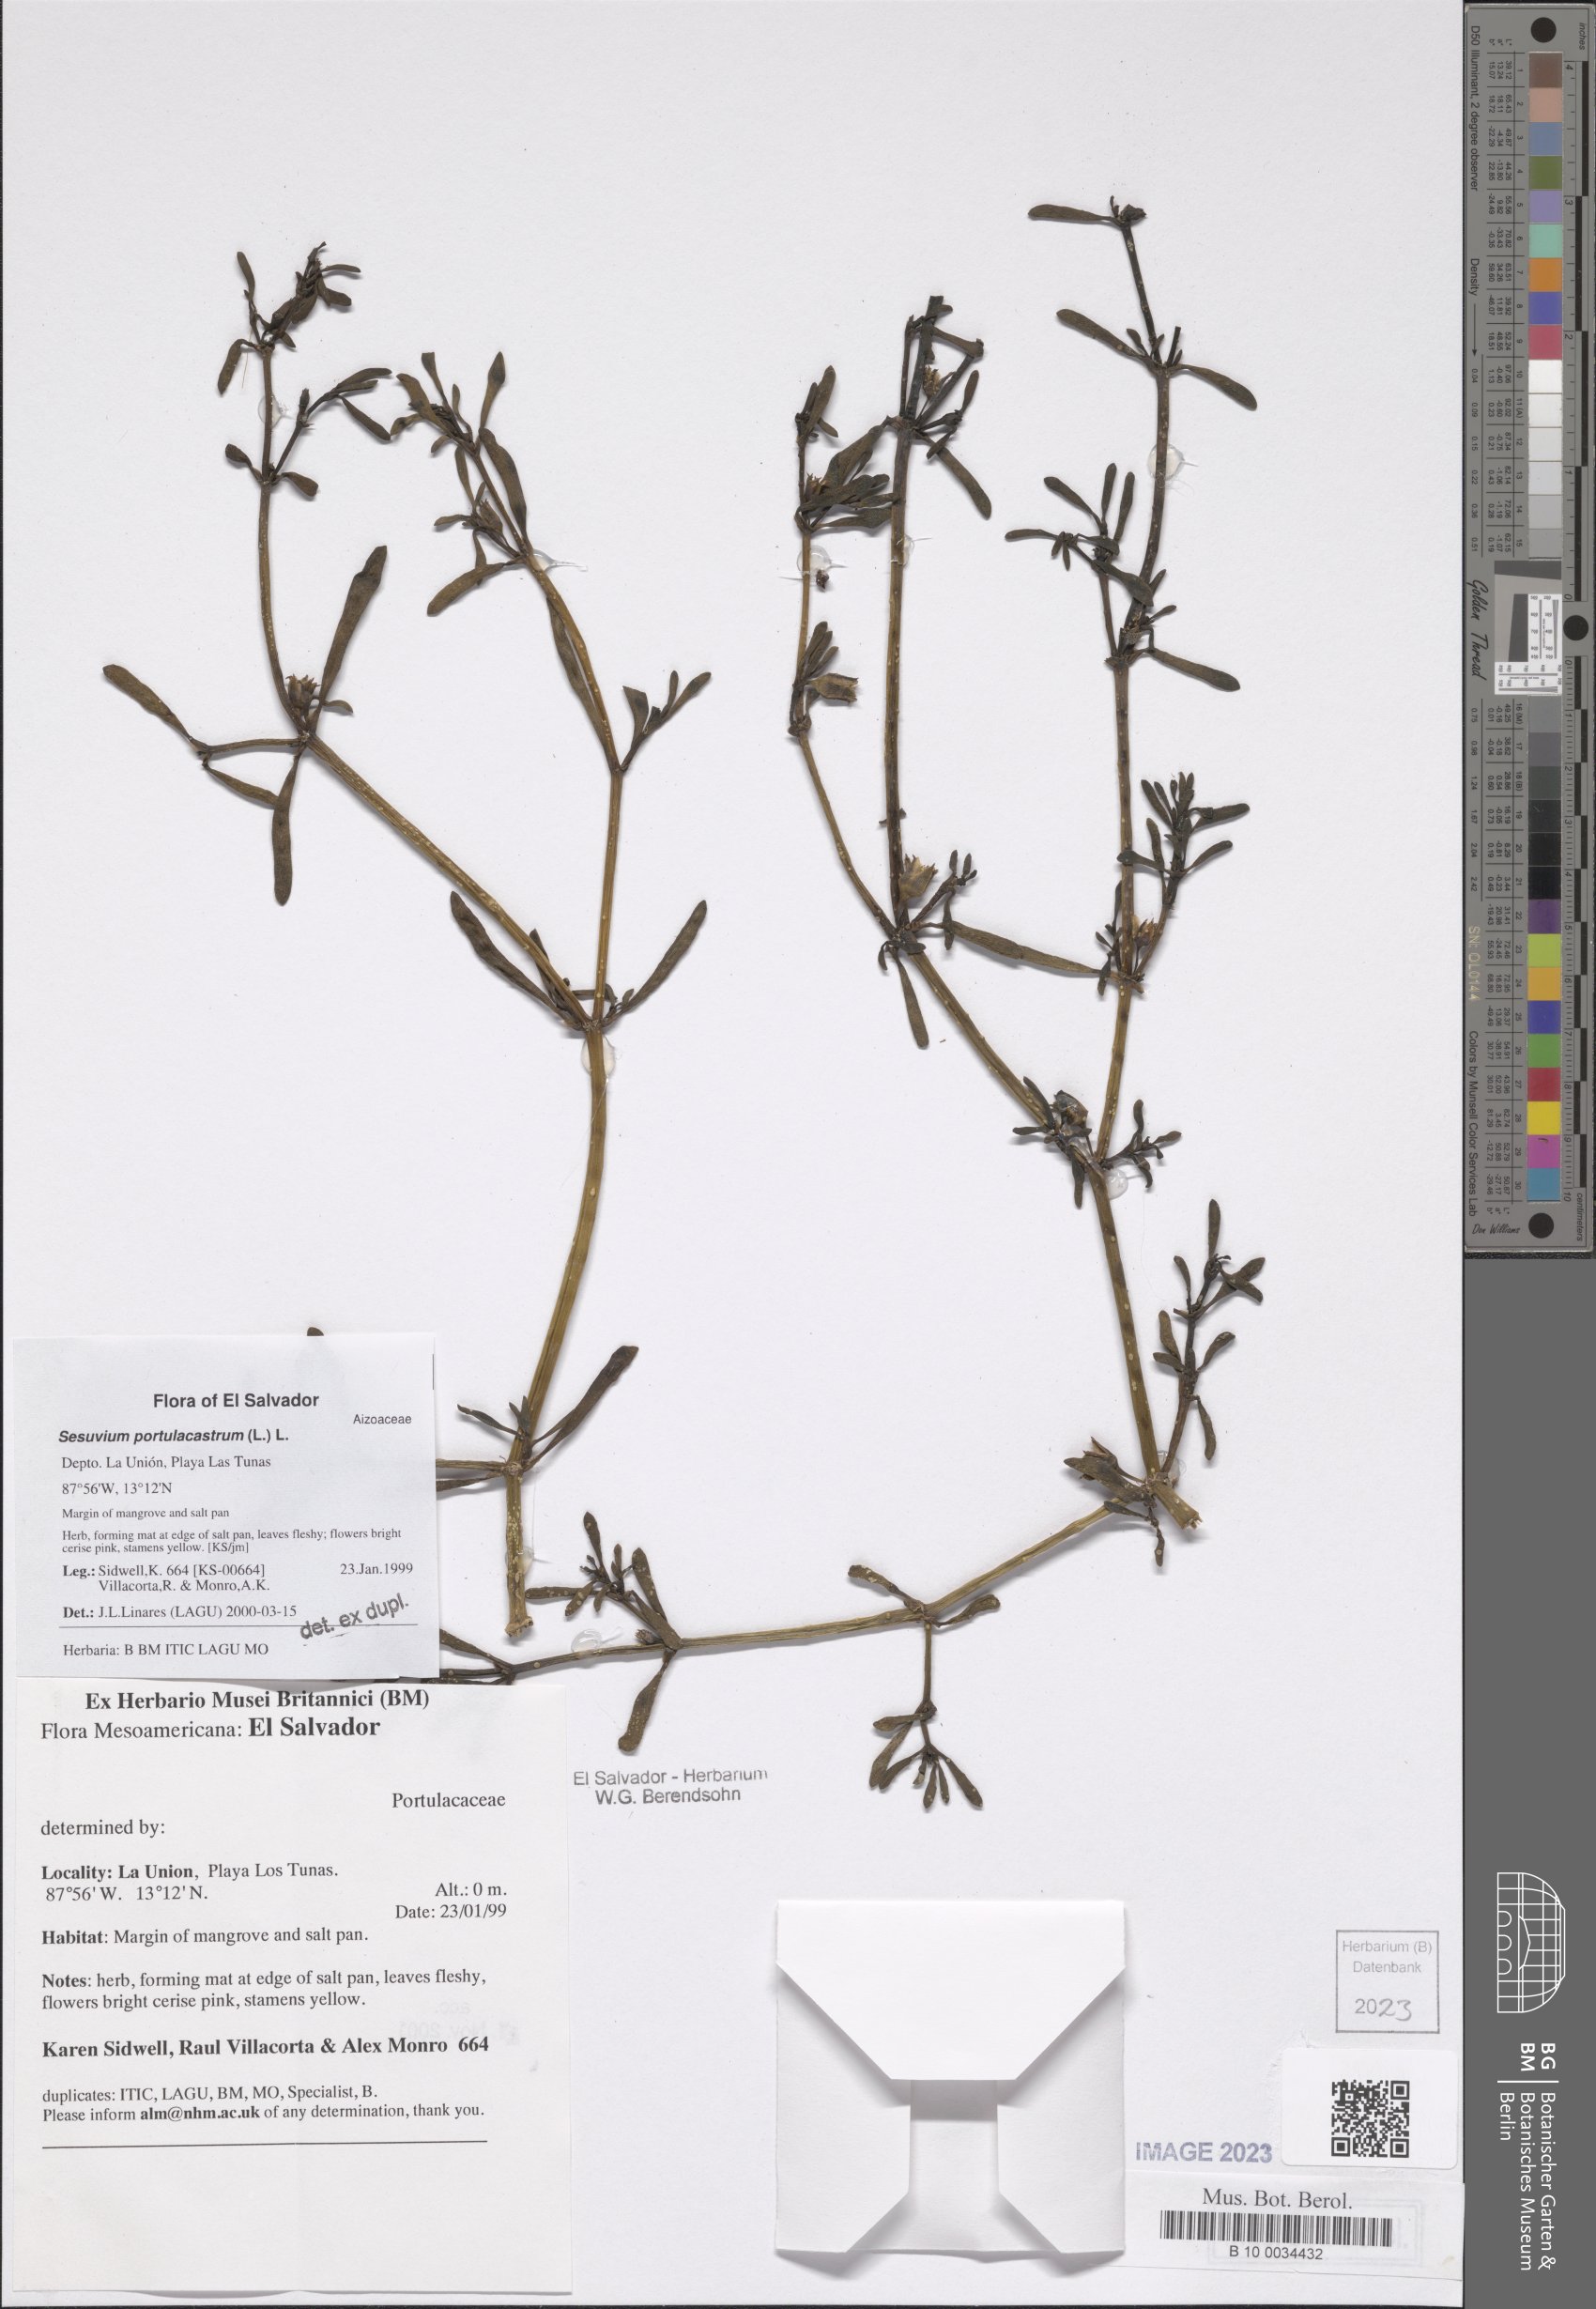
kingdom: Plantae
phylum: Tracheophyta
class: Magnoliopsida
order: Caryophyllales
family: Aizoaceae
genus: Sesuvium
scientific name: Sesuvium portulacastrum
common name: Sea-purslane
